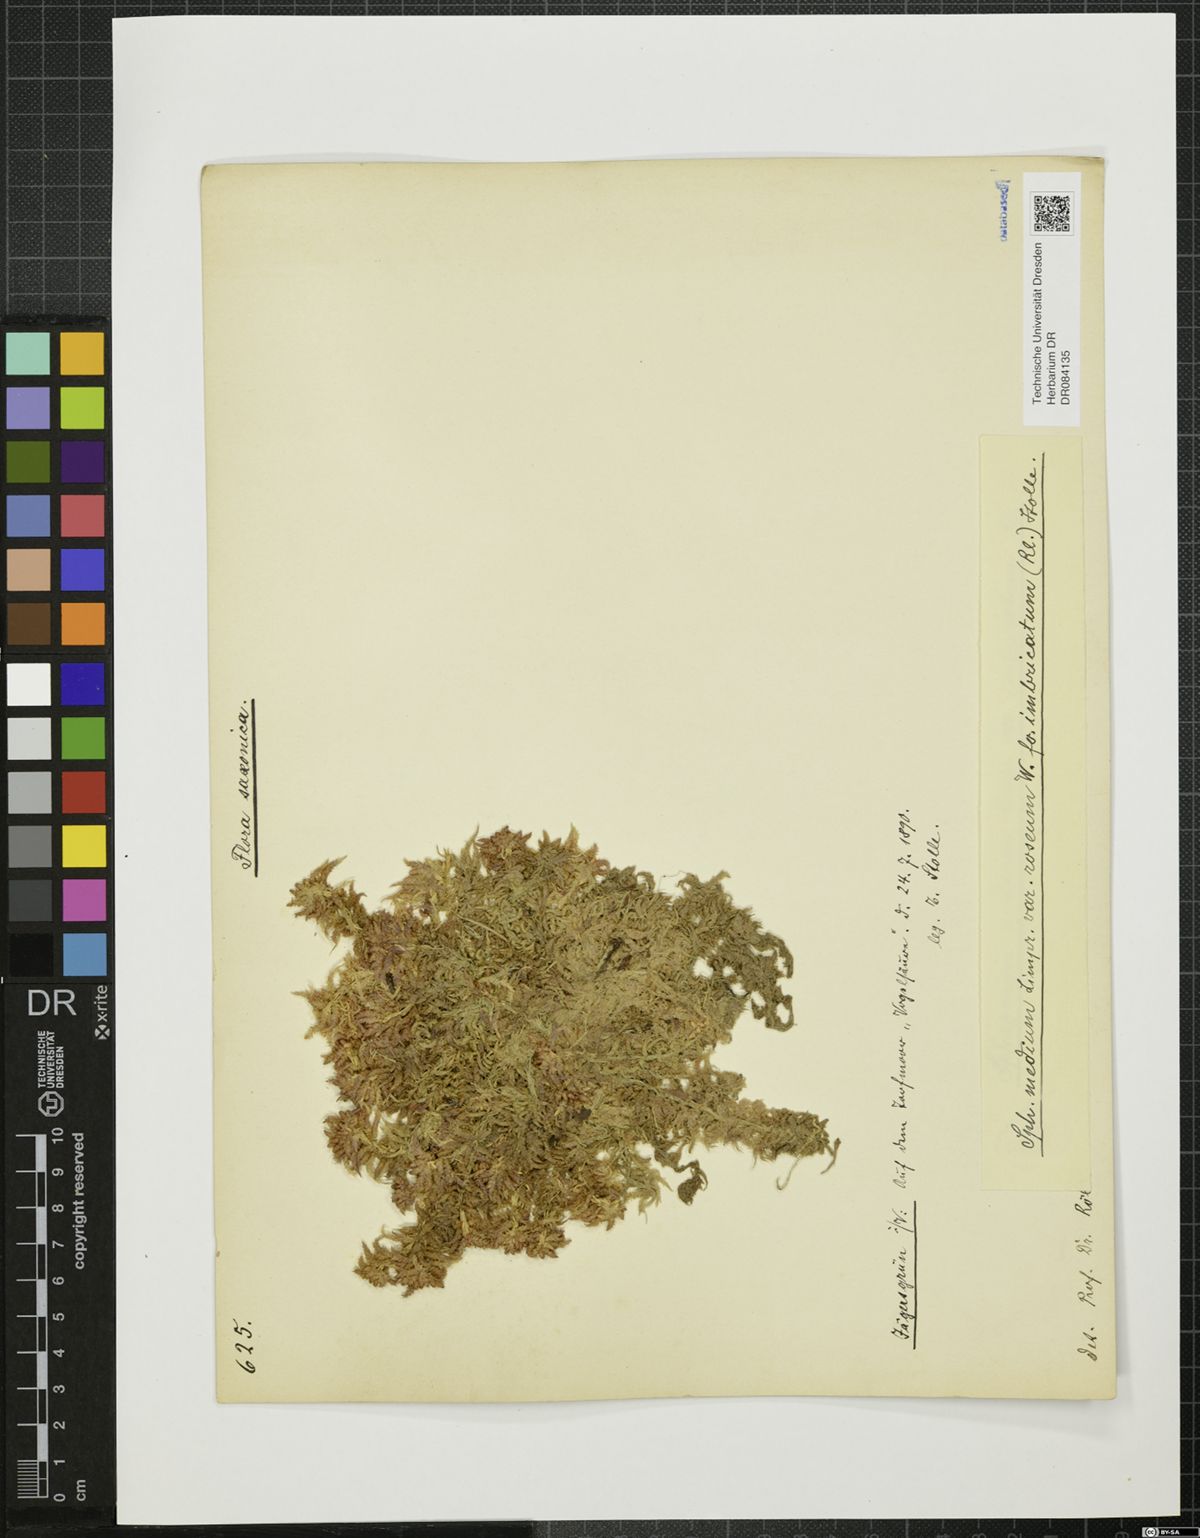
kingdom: Plantae
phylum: Bryophyta
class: Sphagnopsida
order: Sphagnales
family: Sphagnaceae
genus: Sphagnum
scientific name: Sphagnum
